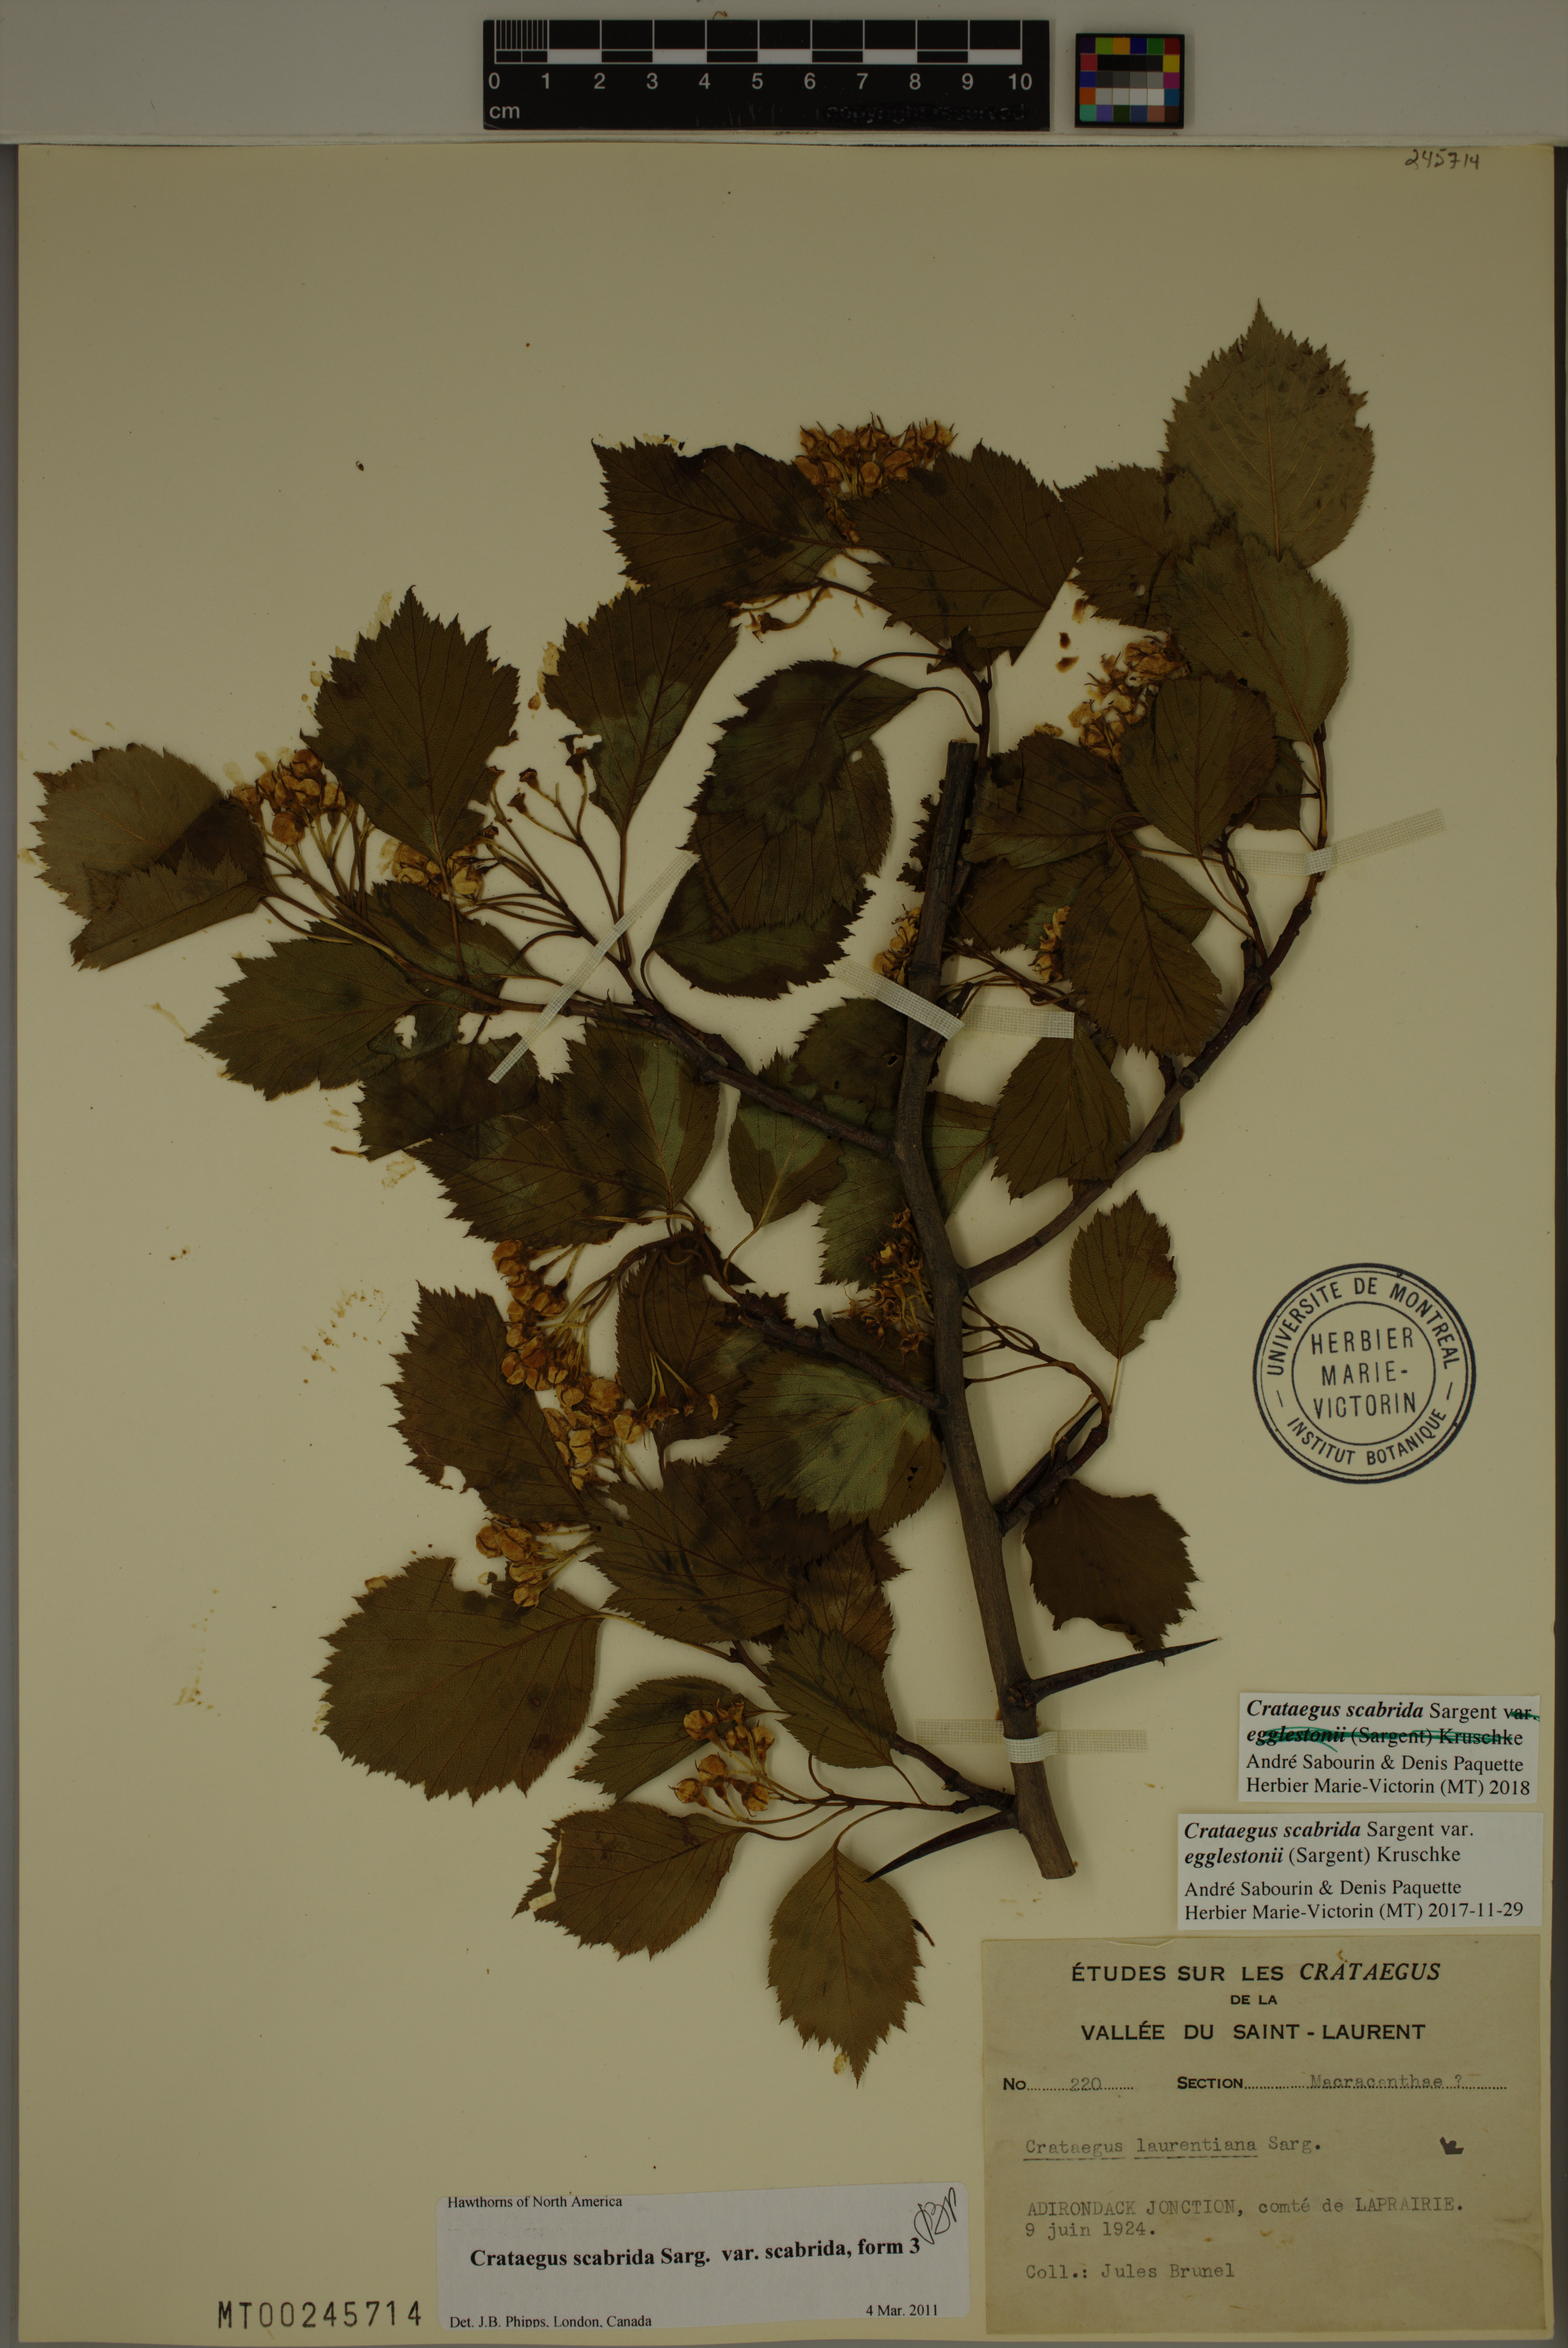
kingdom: Plantae
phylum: Tracheophyta
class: Magnoliopsida
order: Rosales
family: Rosaceae
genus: Crataegus
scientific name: Crataegus scabrida
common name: Rough hawthorn
